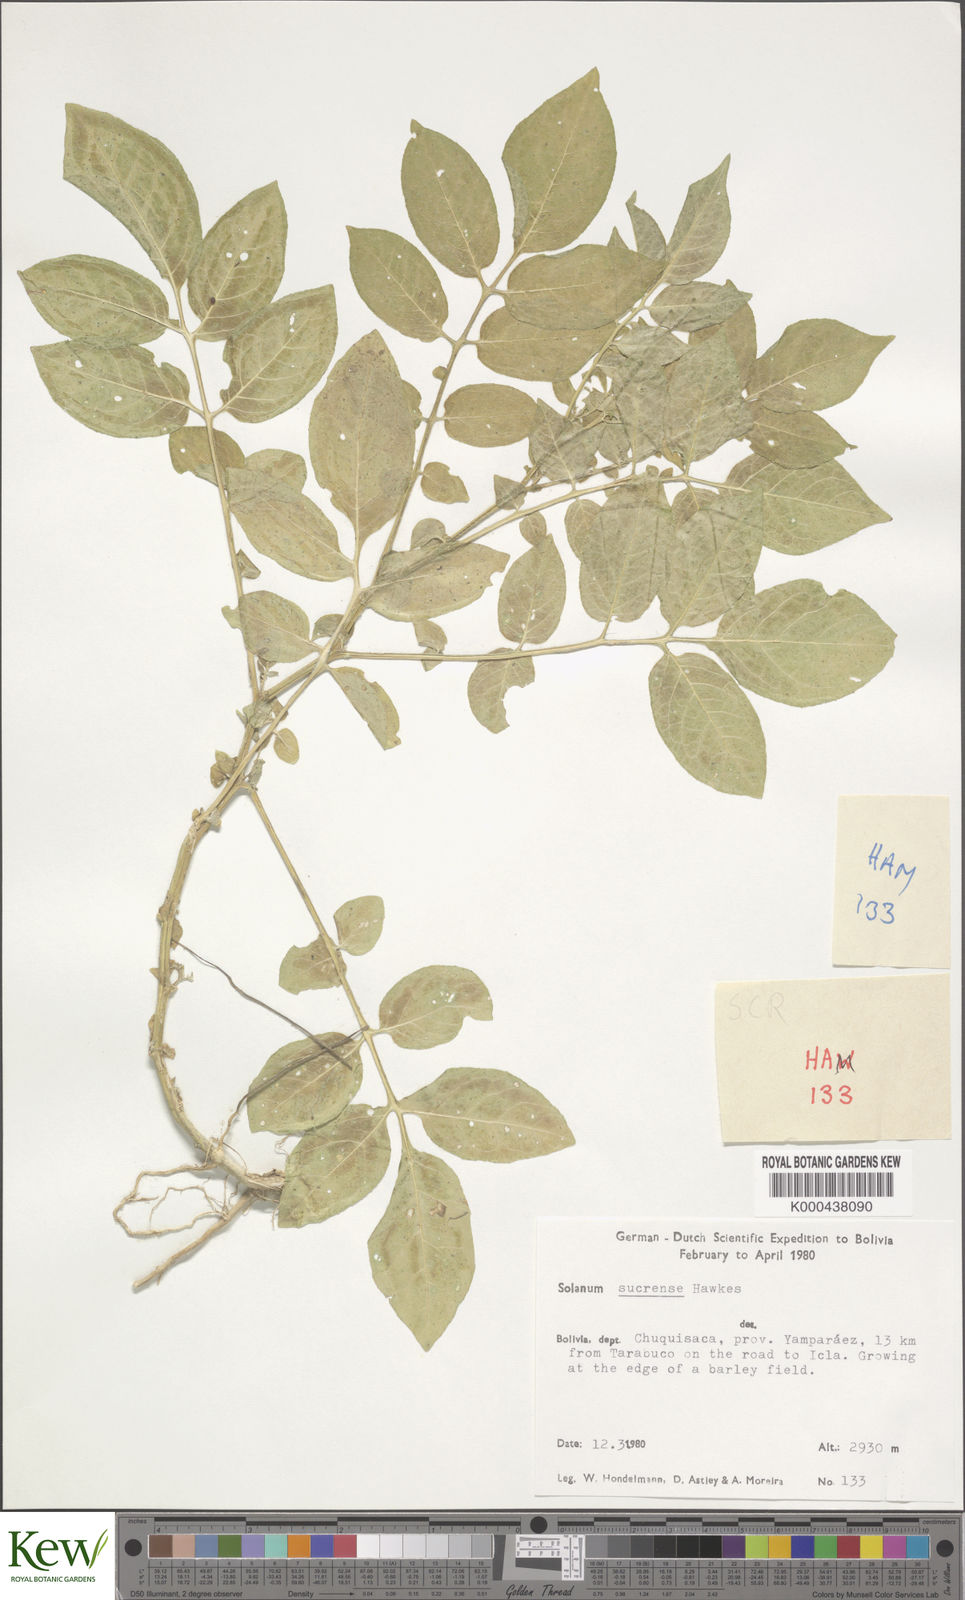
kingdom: Plantae
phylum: Tracheophyta
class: Magnoliopsida
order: Solanales
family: Solanaceae
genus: Solanum
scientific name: Solanum brevicaule
